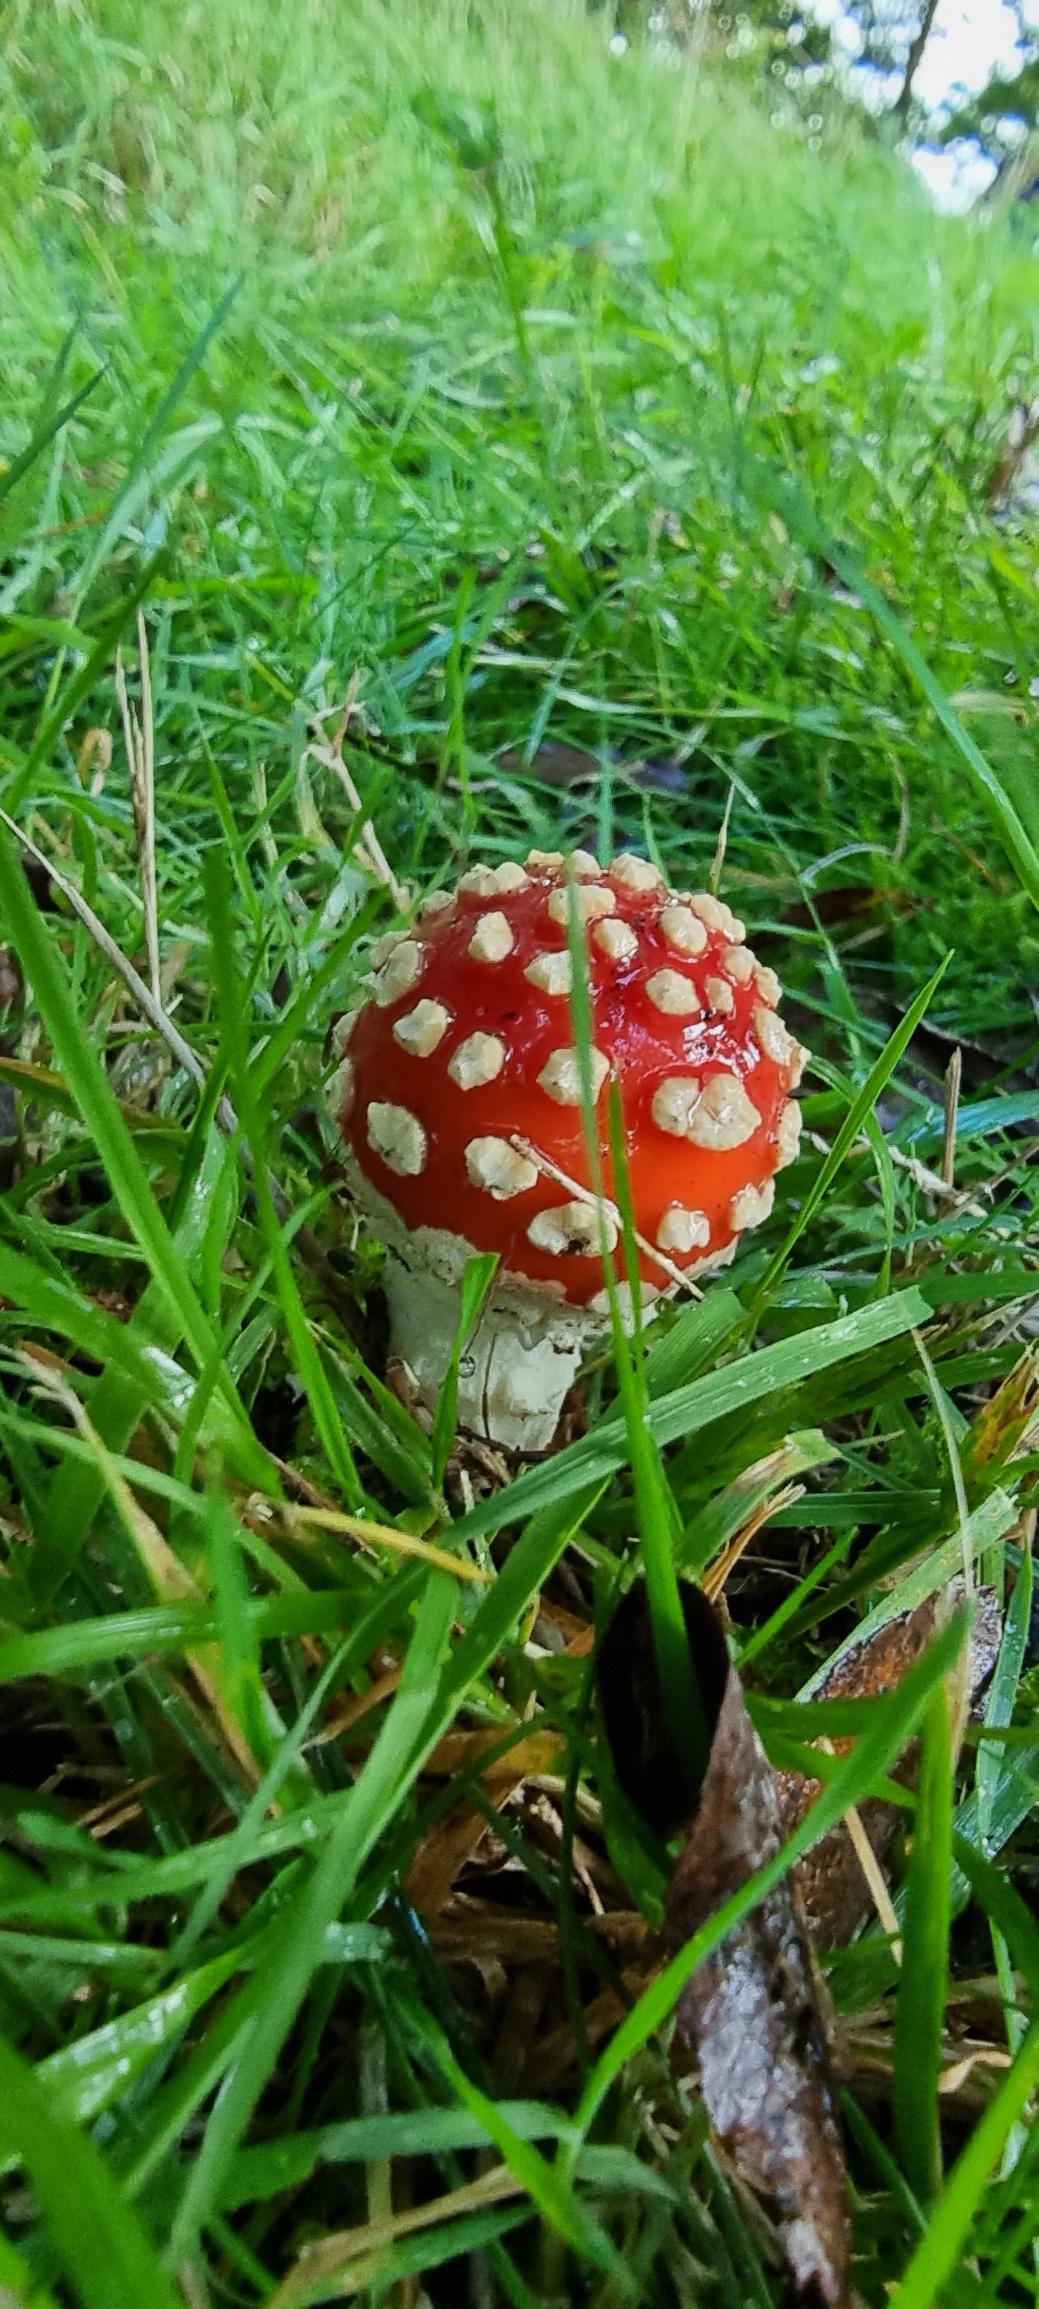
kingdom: Fungi
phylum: Basidiomycota
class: Agaricomycetes
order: Agaricales
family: Amanitaceae
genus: Amanita
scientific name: Amanita muscaria
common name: Rød fluesvamp
